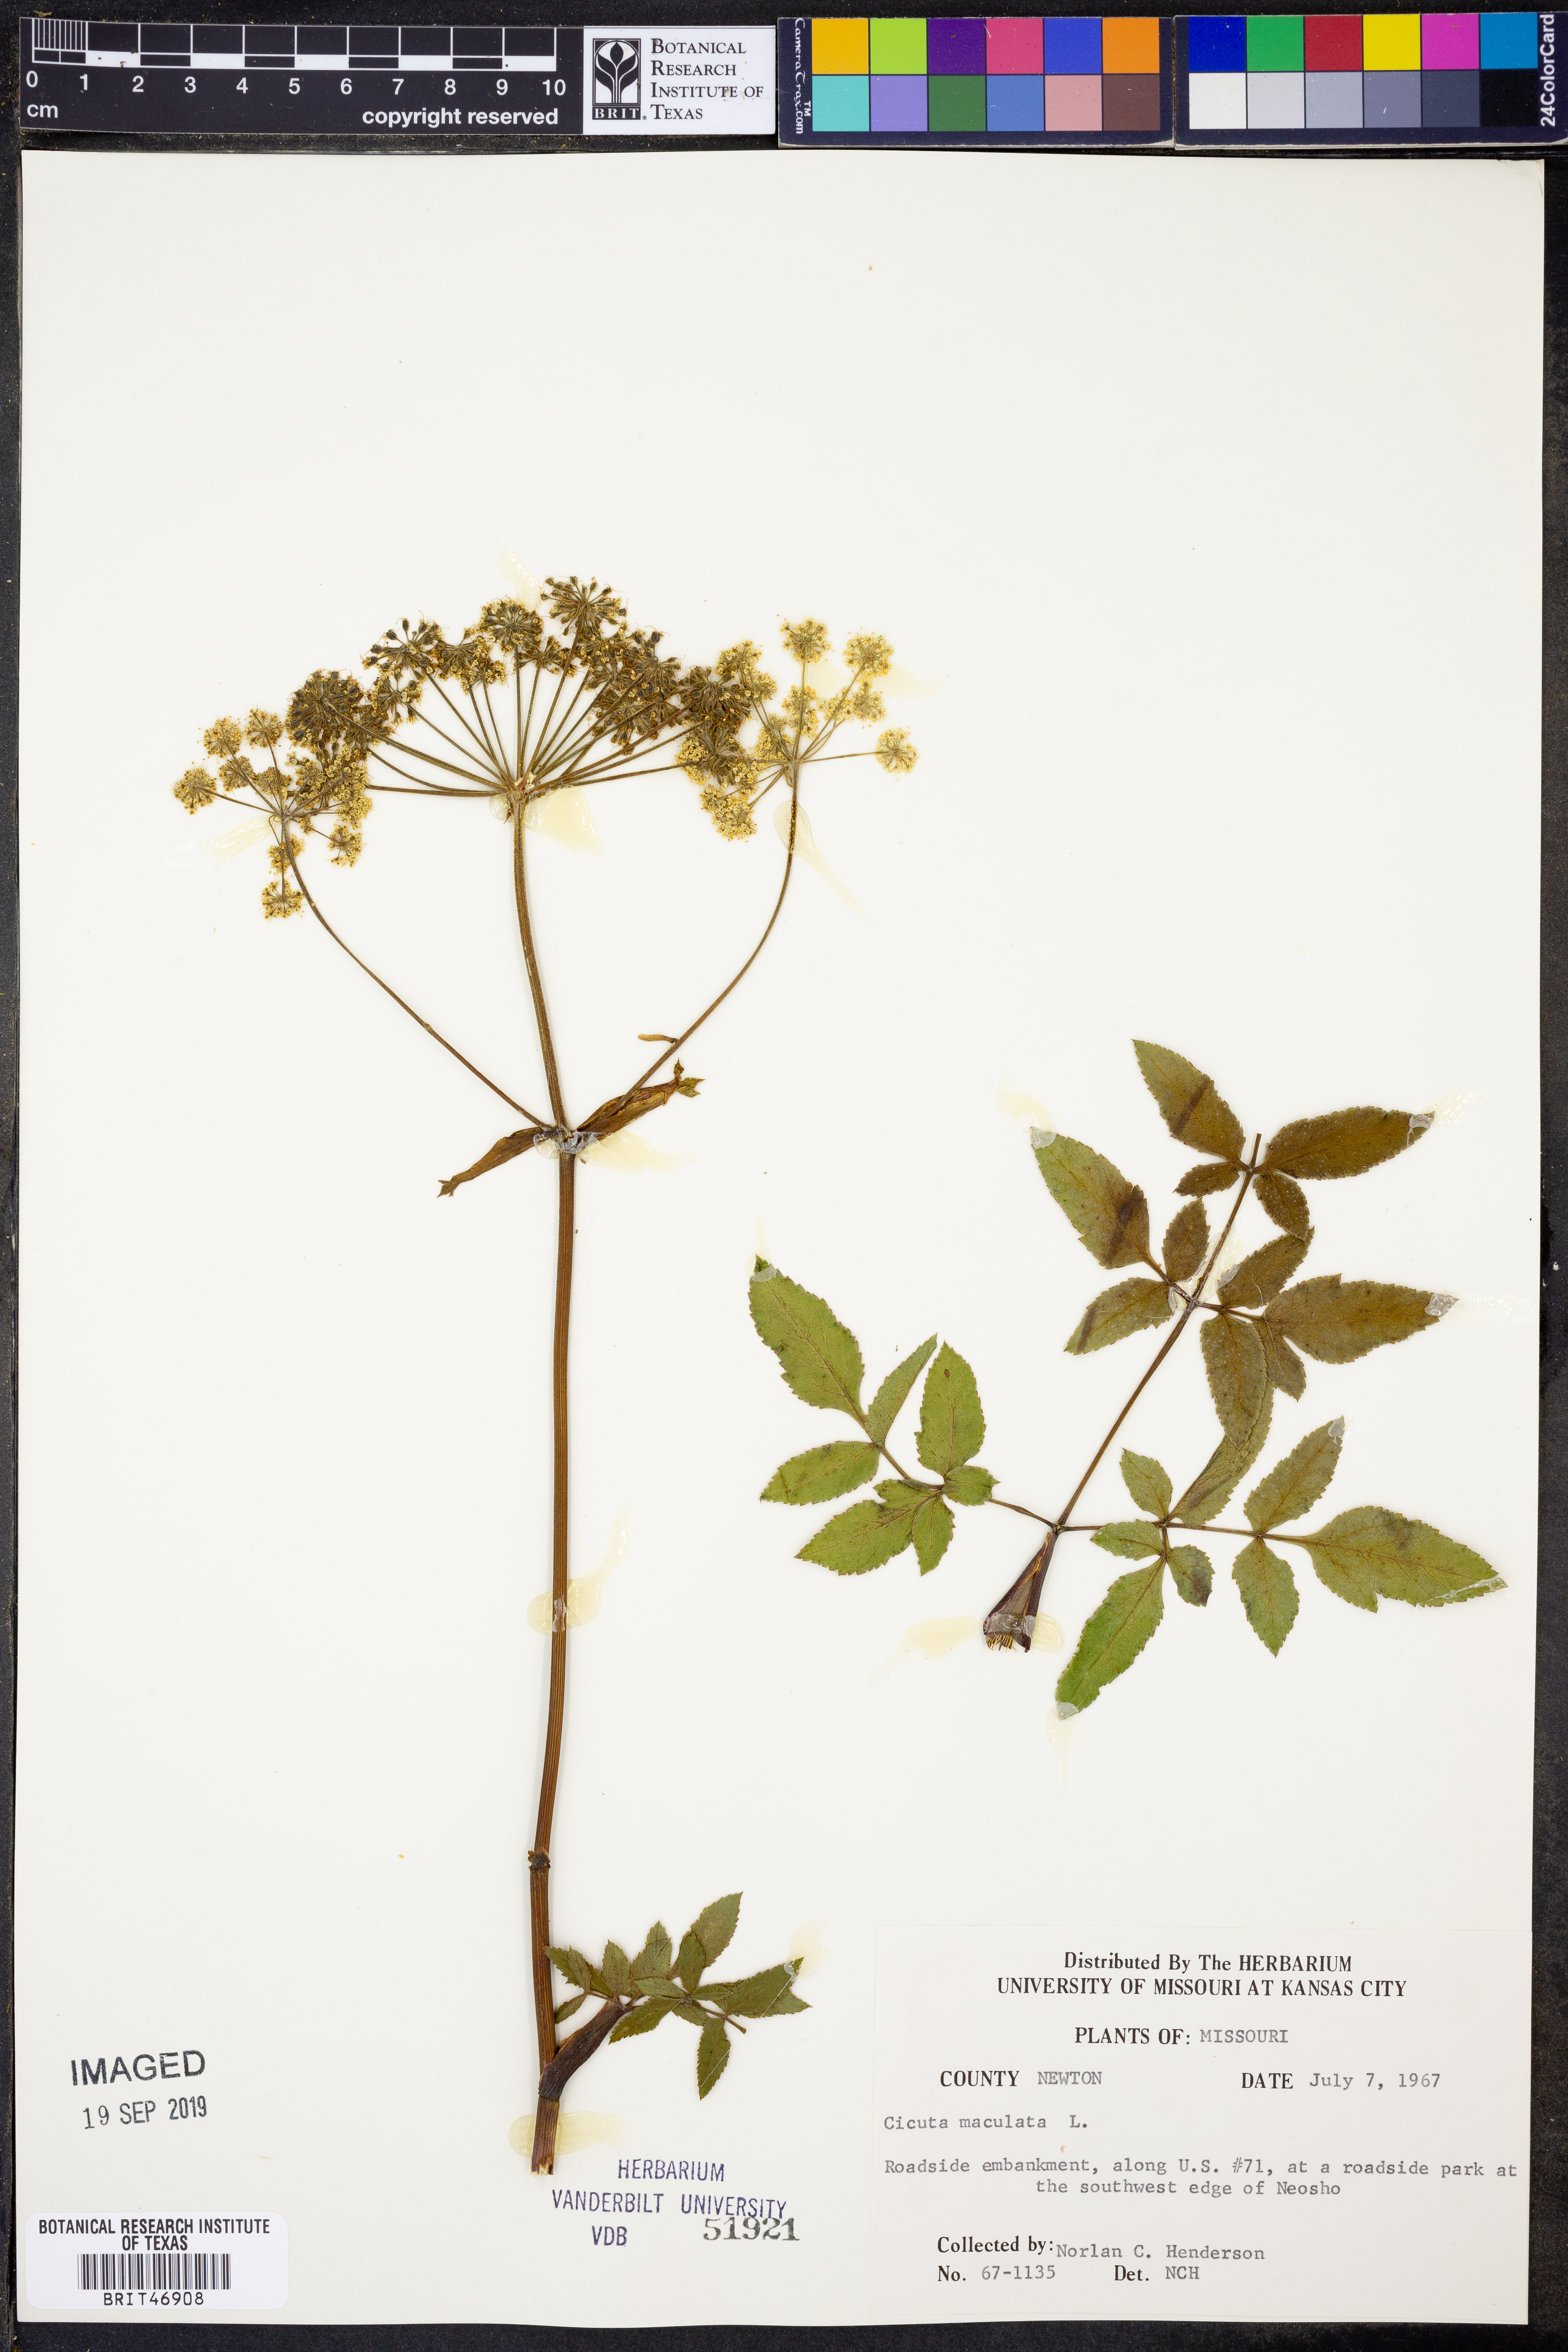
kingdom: Plantae
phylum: Tracheophyta
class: Magnoliopsida
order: Apiales
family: Apiaceae
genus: Cicuta
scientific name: Cicuta maculata
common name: Spotted cowbane
